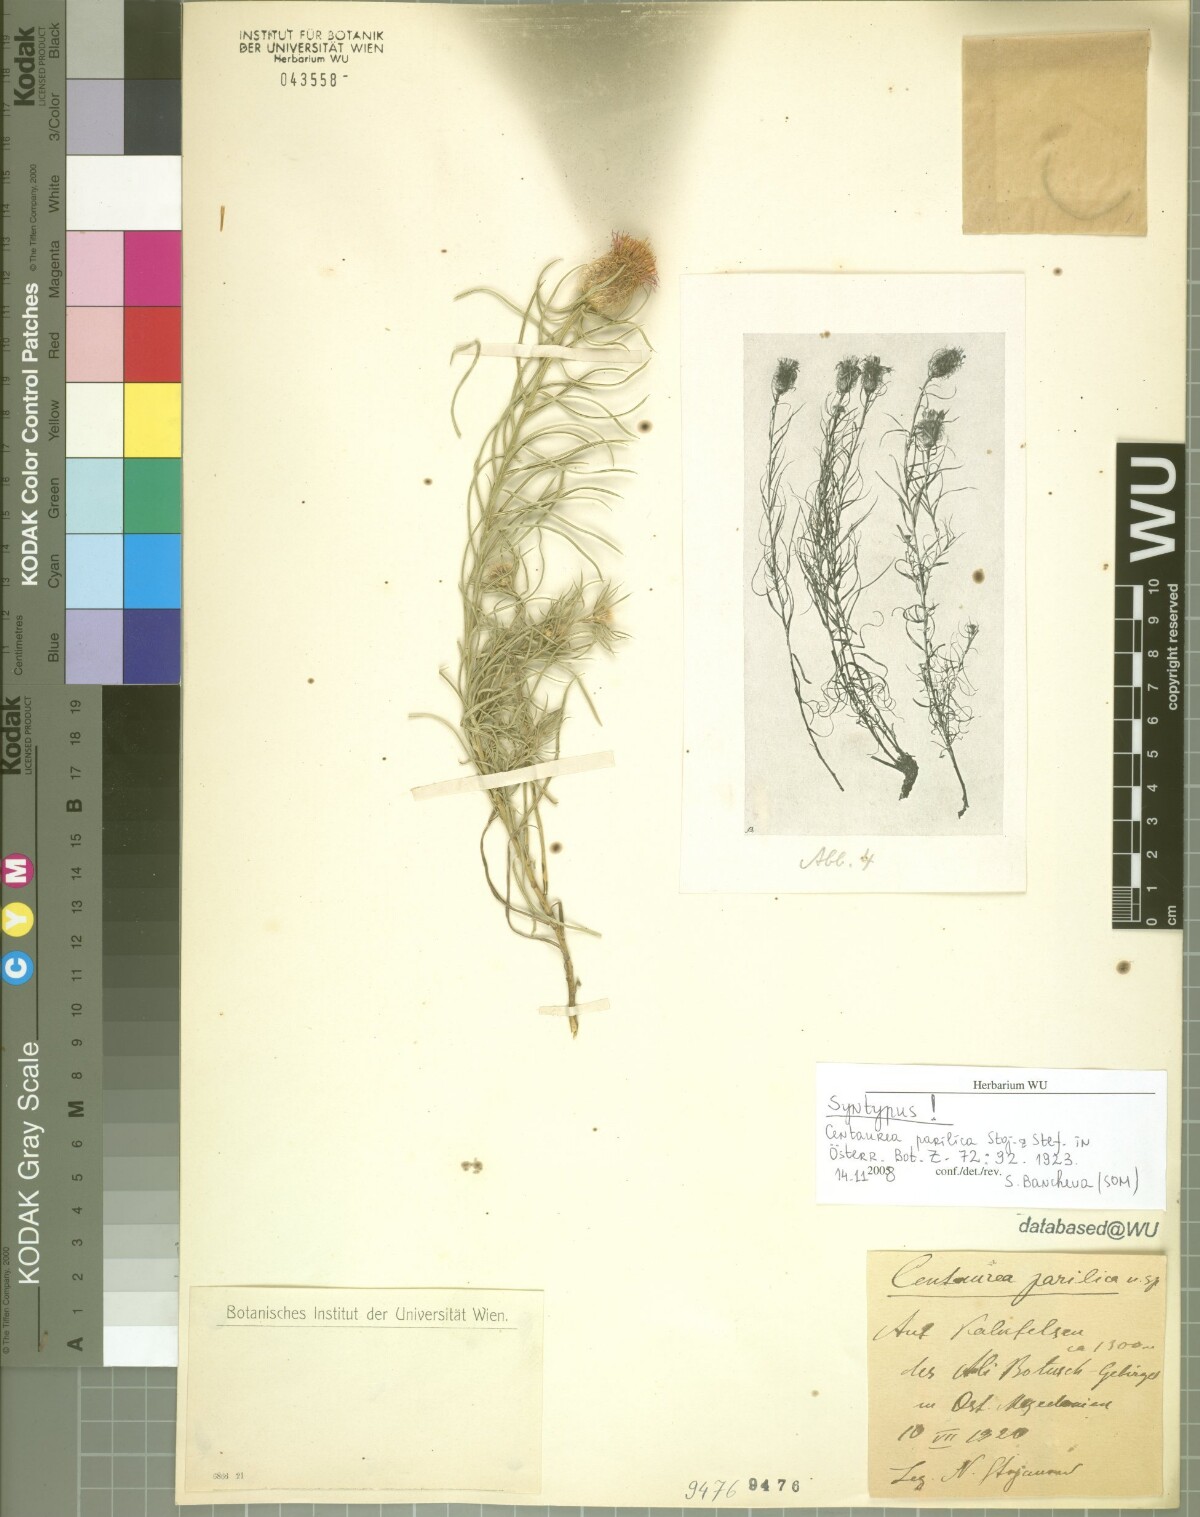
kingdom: Plantae
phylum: Tracheophyta
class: Magnoliopsida
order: Asterales
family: Asteraceae
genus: Centaurea
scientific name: Centaurea parilica
